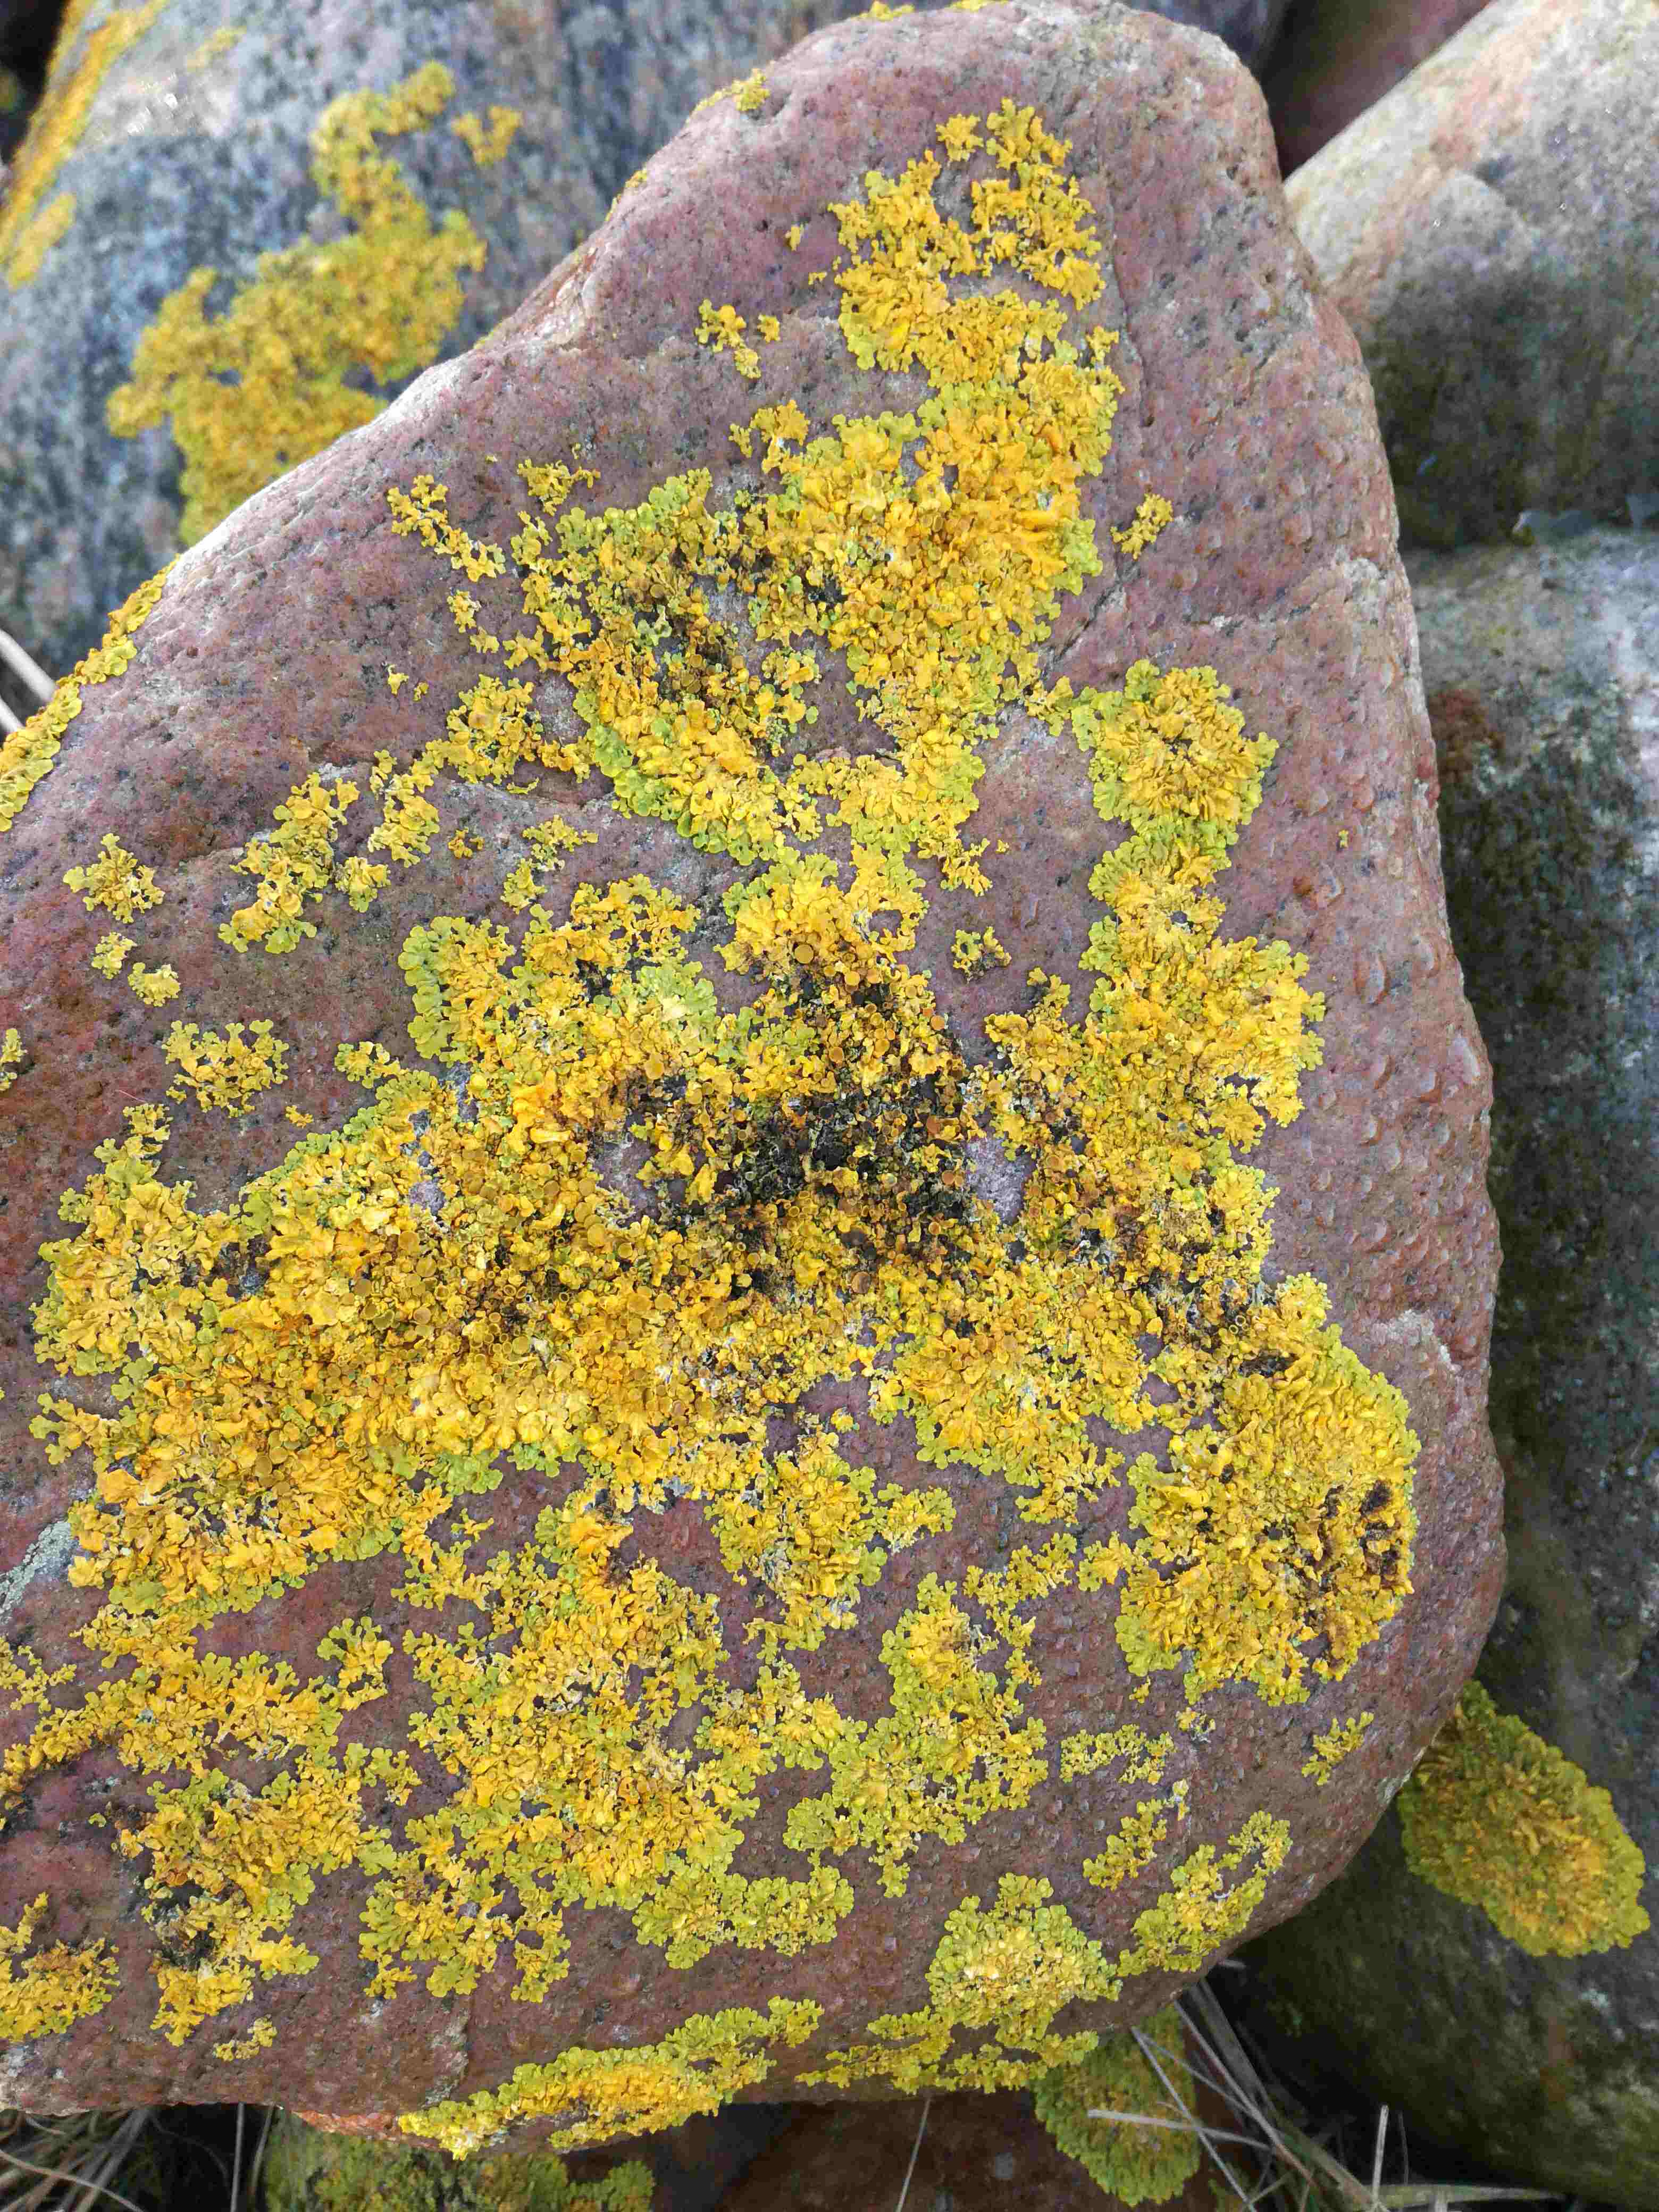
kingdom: Fungi
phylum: Ascomycota
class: Lecanoromycetes
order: Teloschistales
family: Teloschistaceae
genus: Xanthoria
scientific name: Xanthoria parietina
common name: almindelig væggelav
